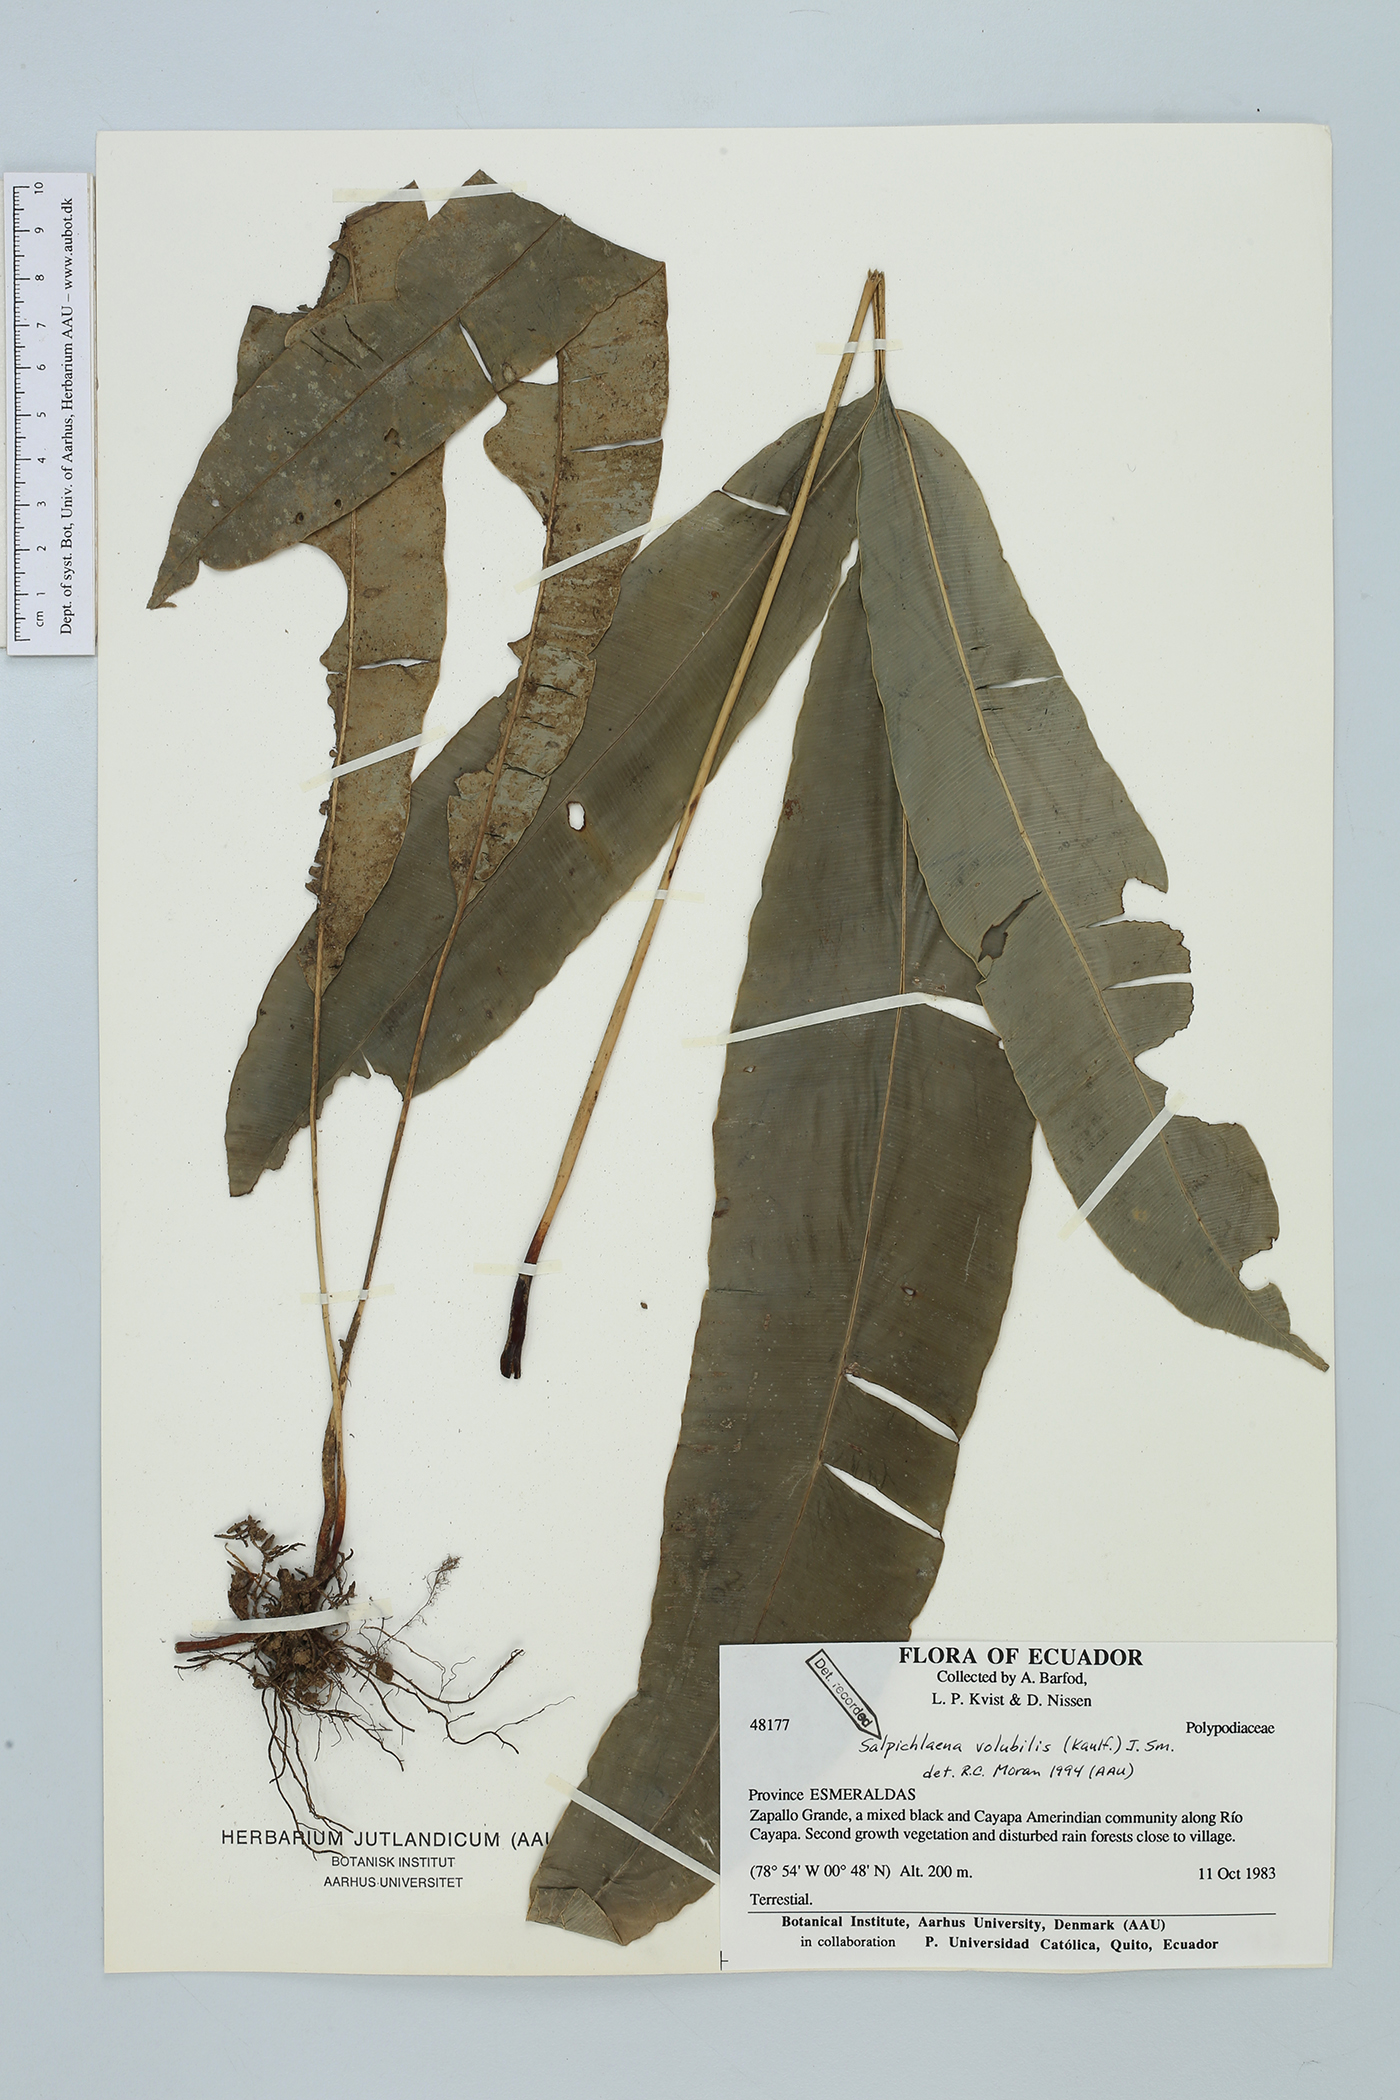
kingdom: Plantae
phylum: Tracheophyta
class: Polypodiopsida
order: Polypodiales
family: Blechnaceae
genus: Salpichlaena
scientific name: Salpichlaena volubilis
